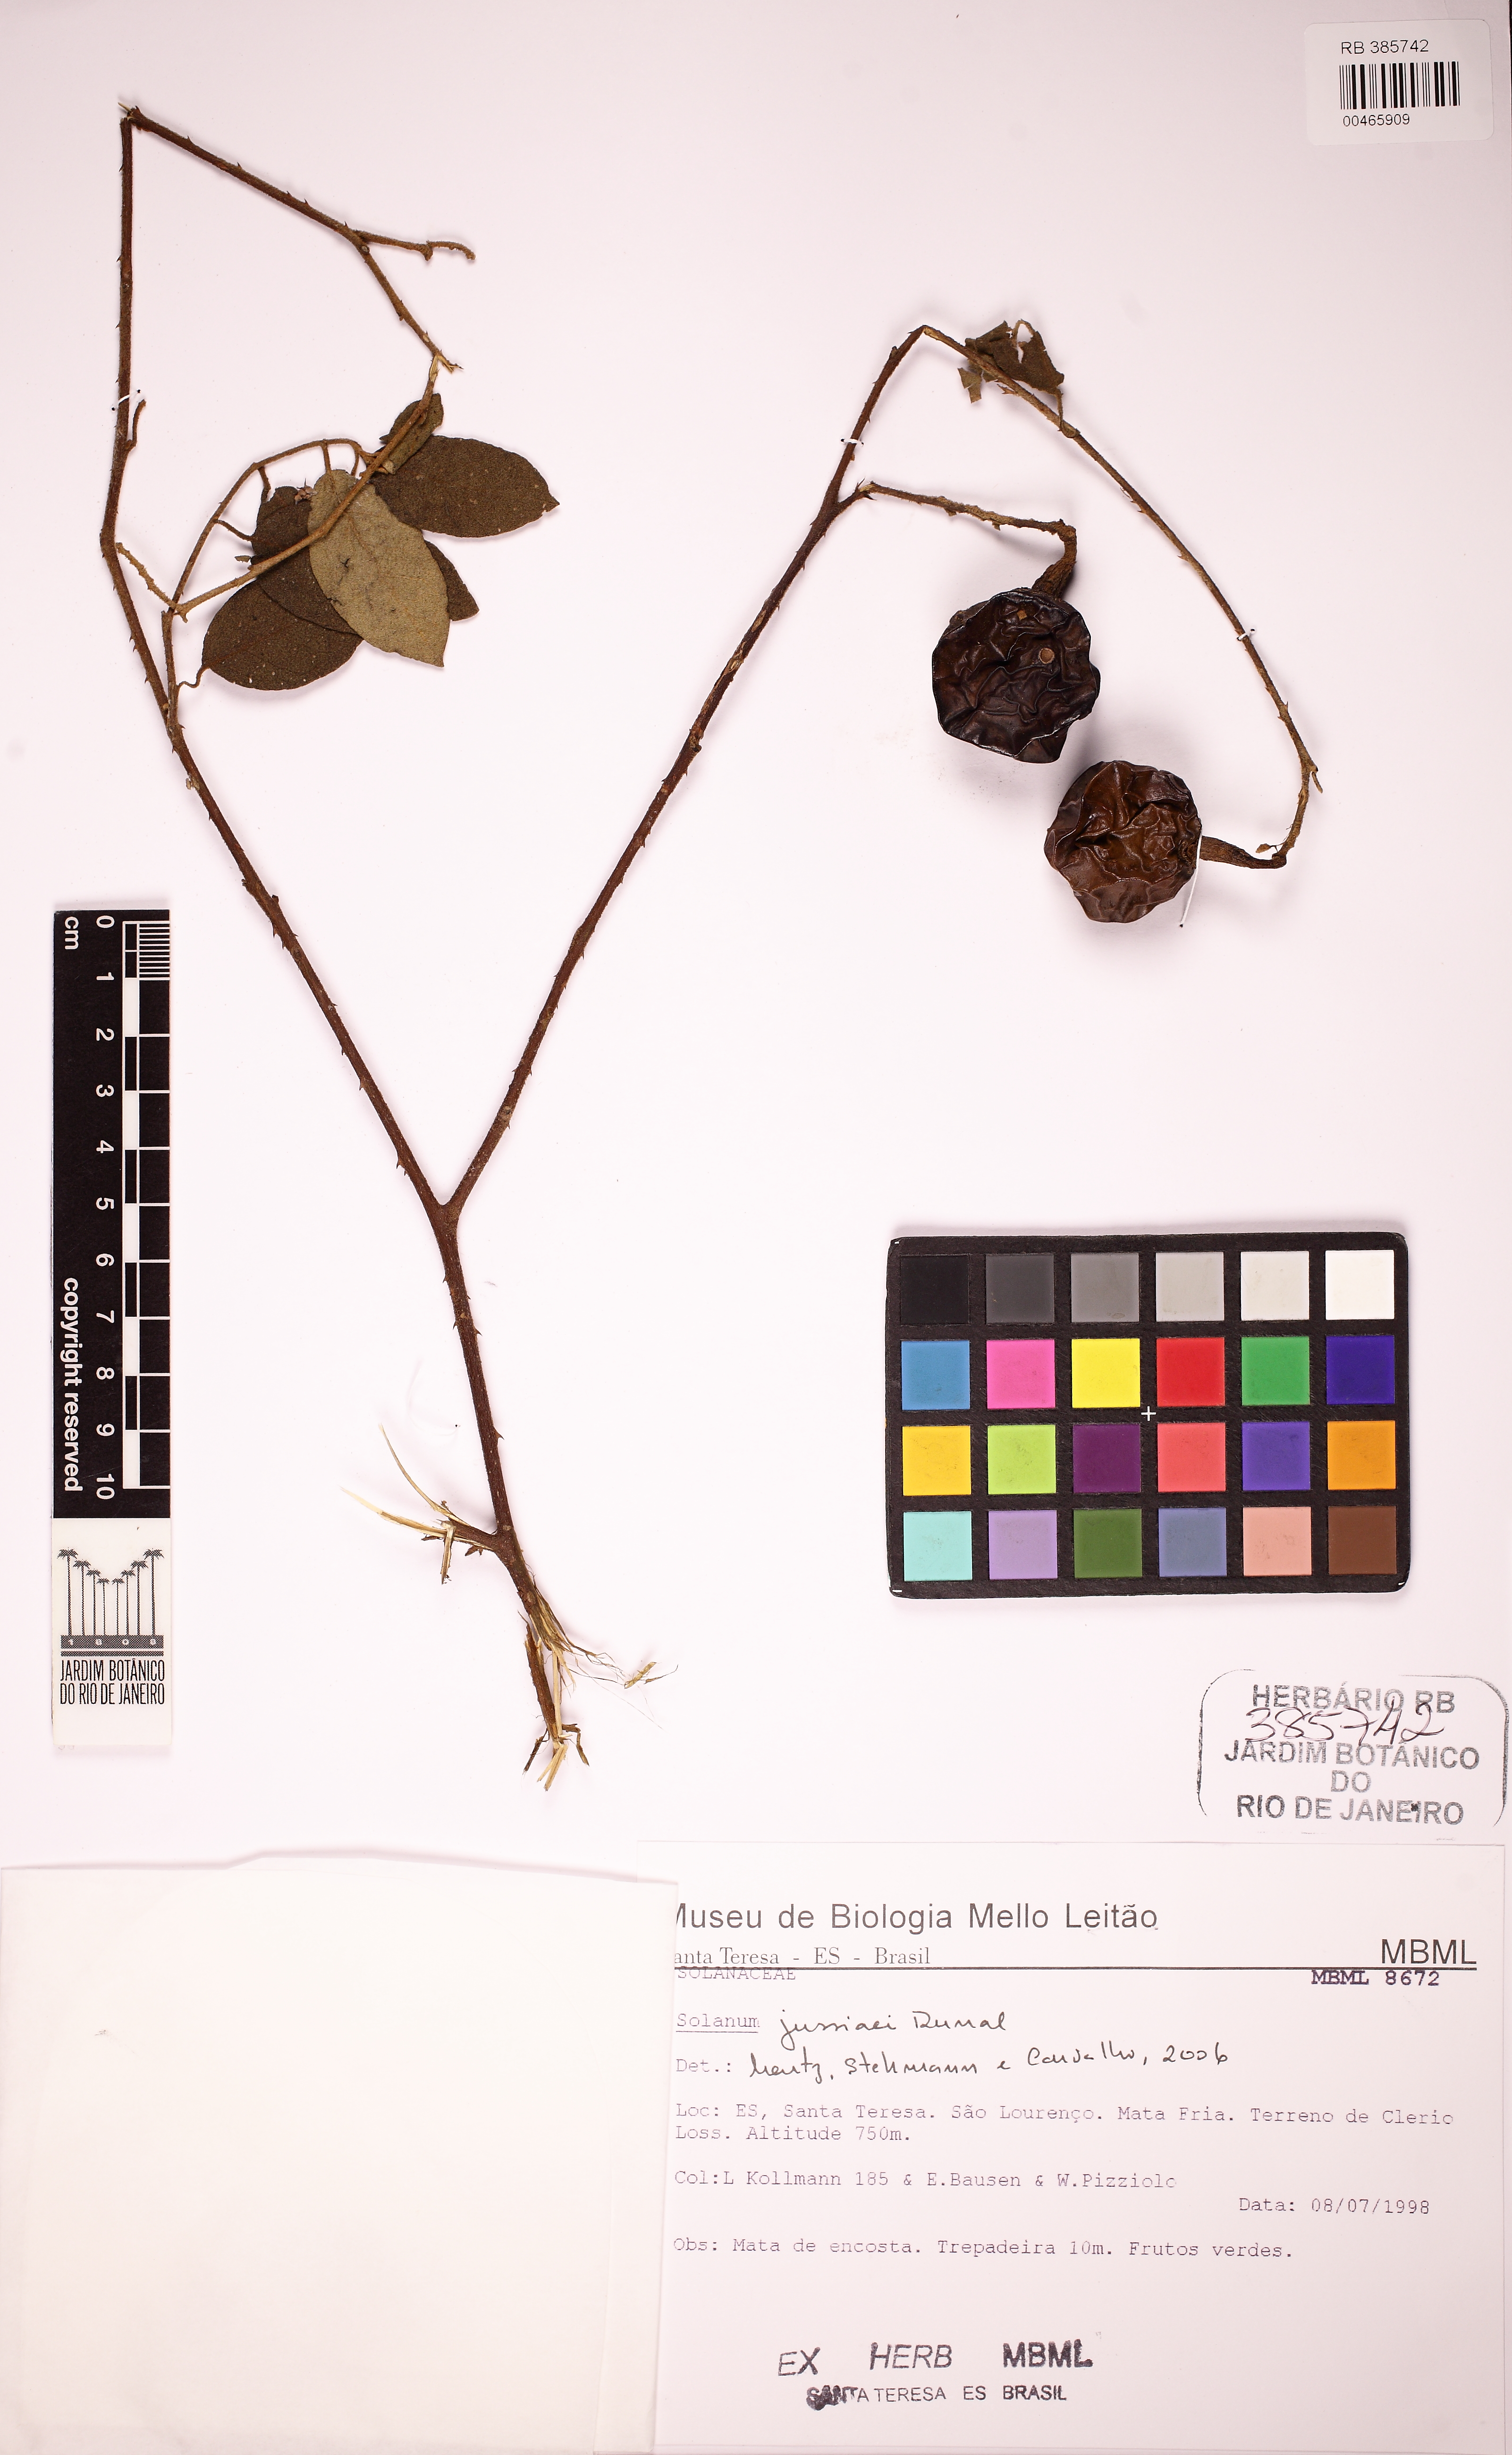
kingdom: Plantae
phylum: Tracheophyta
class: Magnoliopsida
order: Solanales
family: Solanaceae
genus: Solanum
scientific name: Solanum jussiaei
